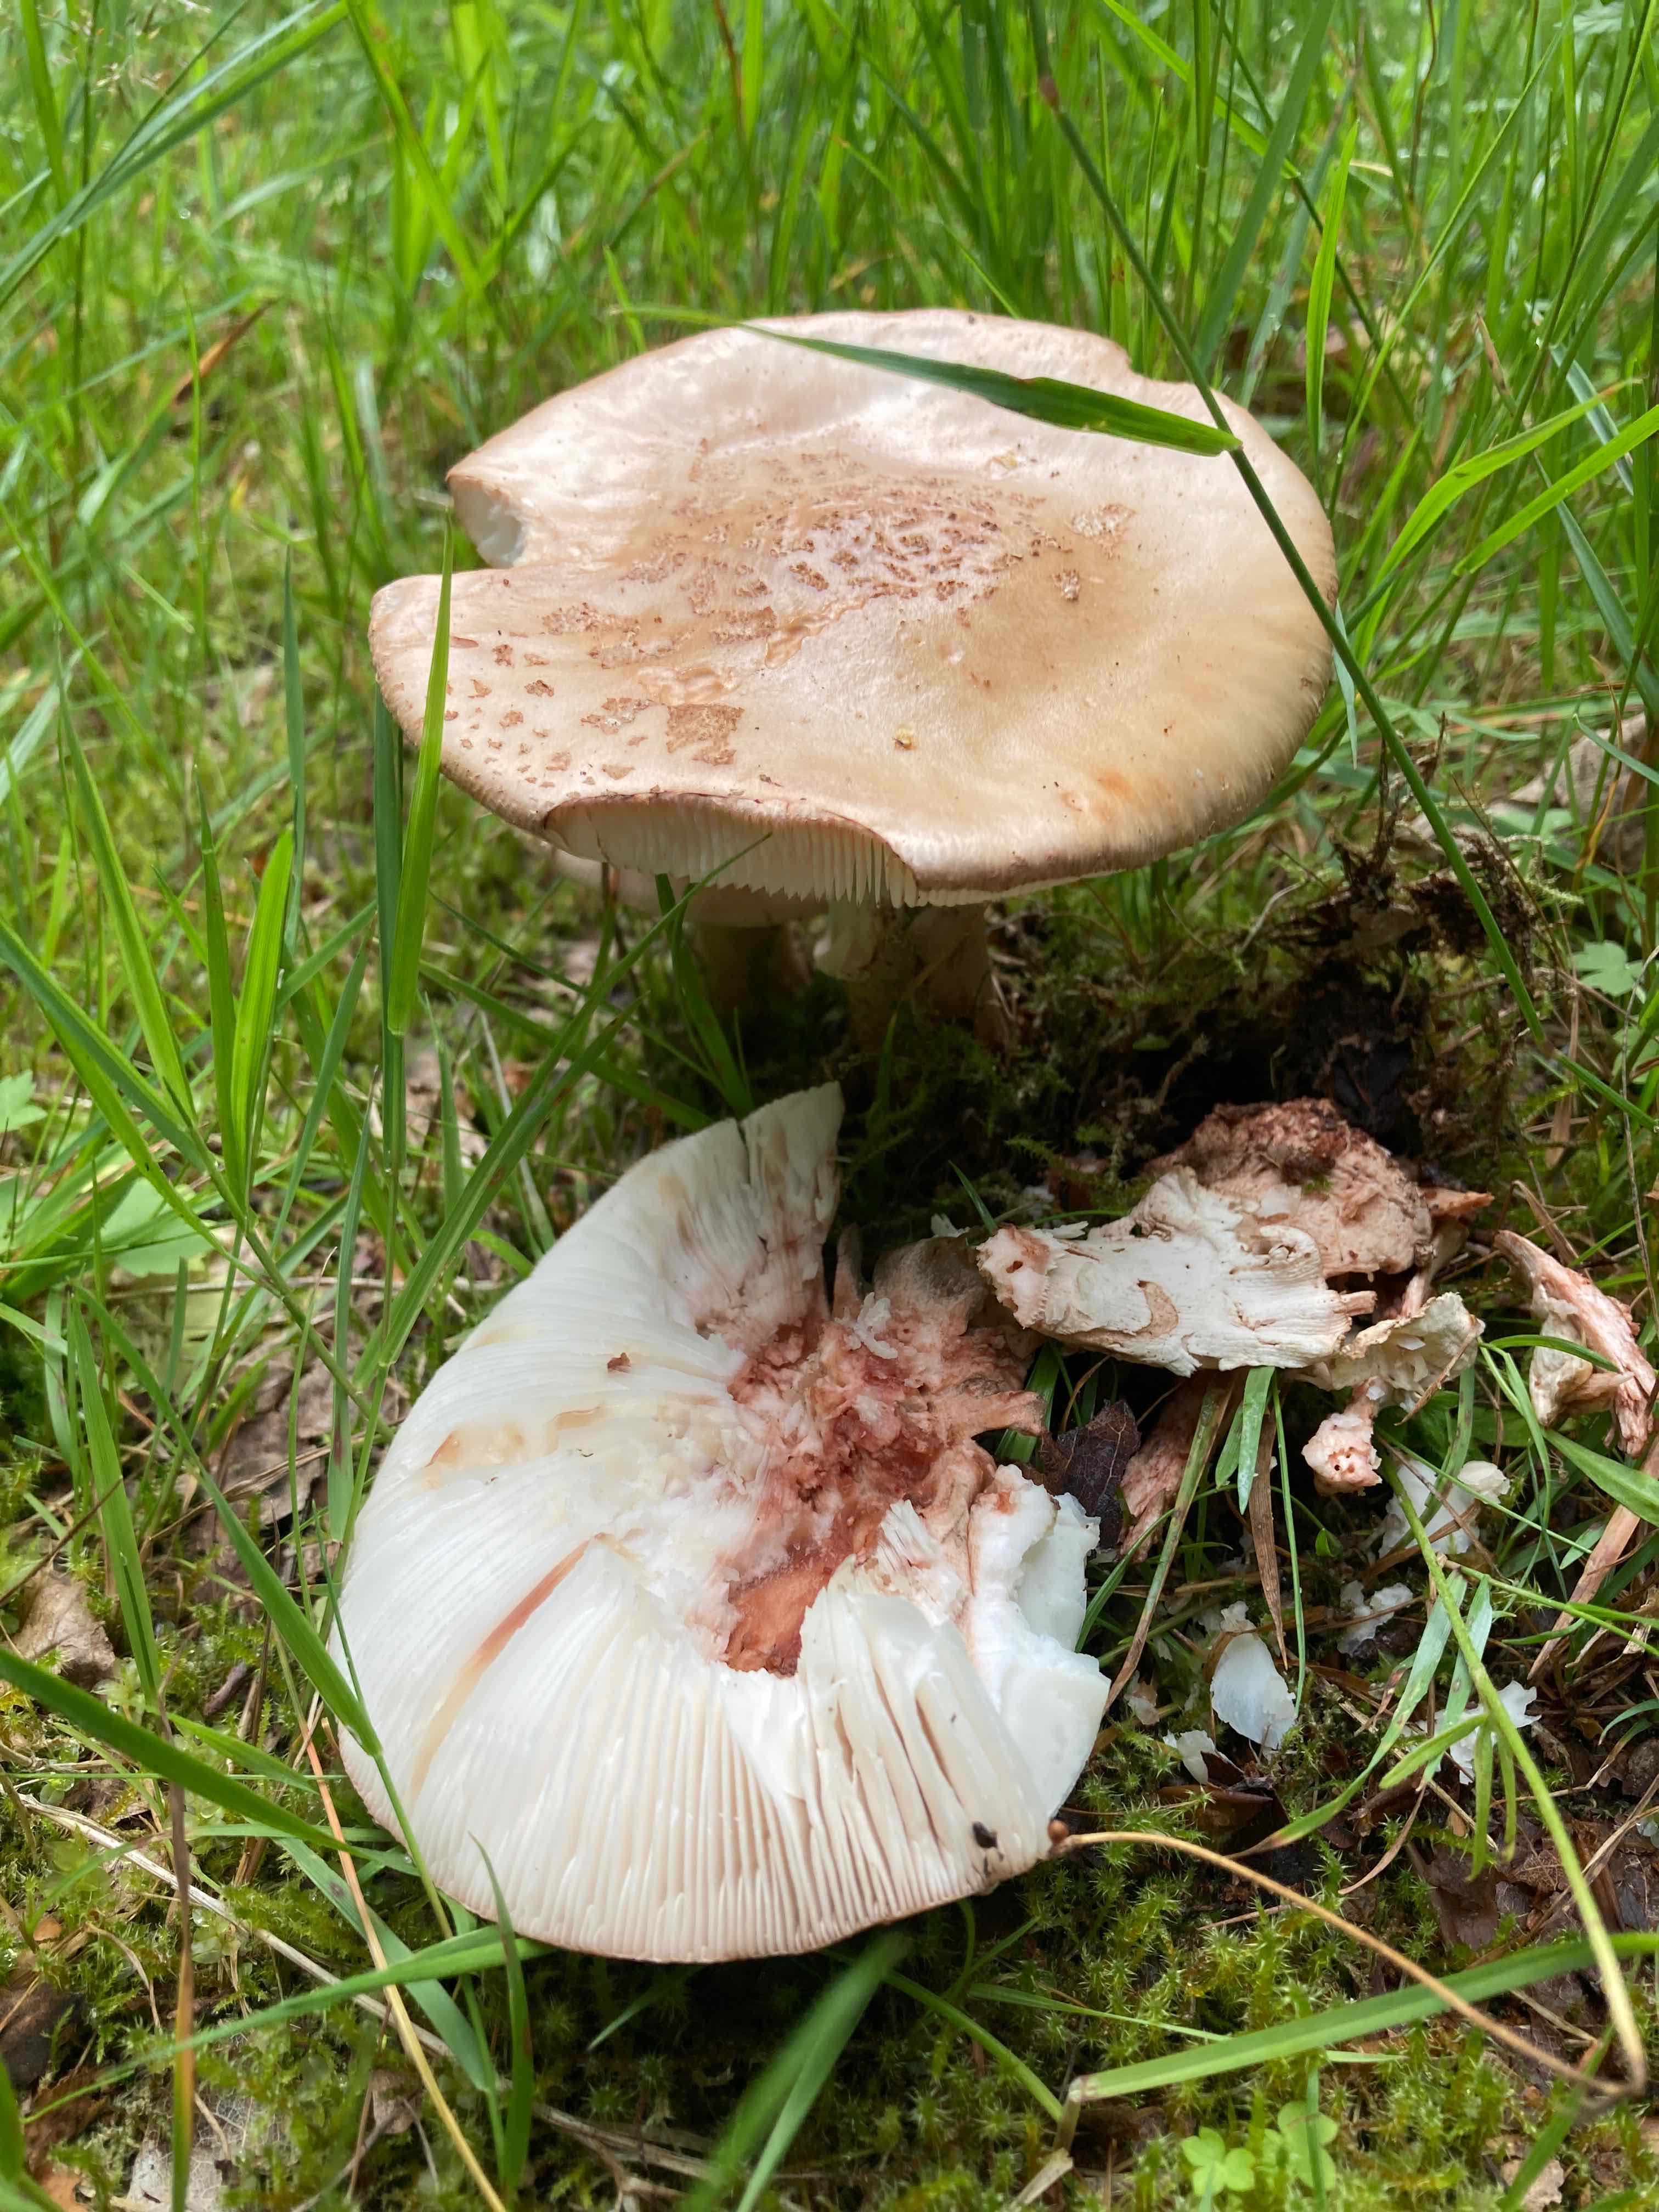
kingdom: Fungi
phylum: Basidiomycota
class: Agaricomycetes
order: Agaricales
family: Amanitaceae
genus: Amanita
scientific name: Amanita rubescens
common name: rødmende fluesvamp
